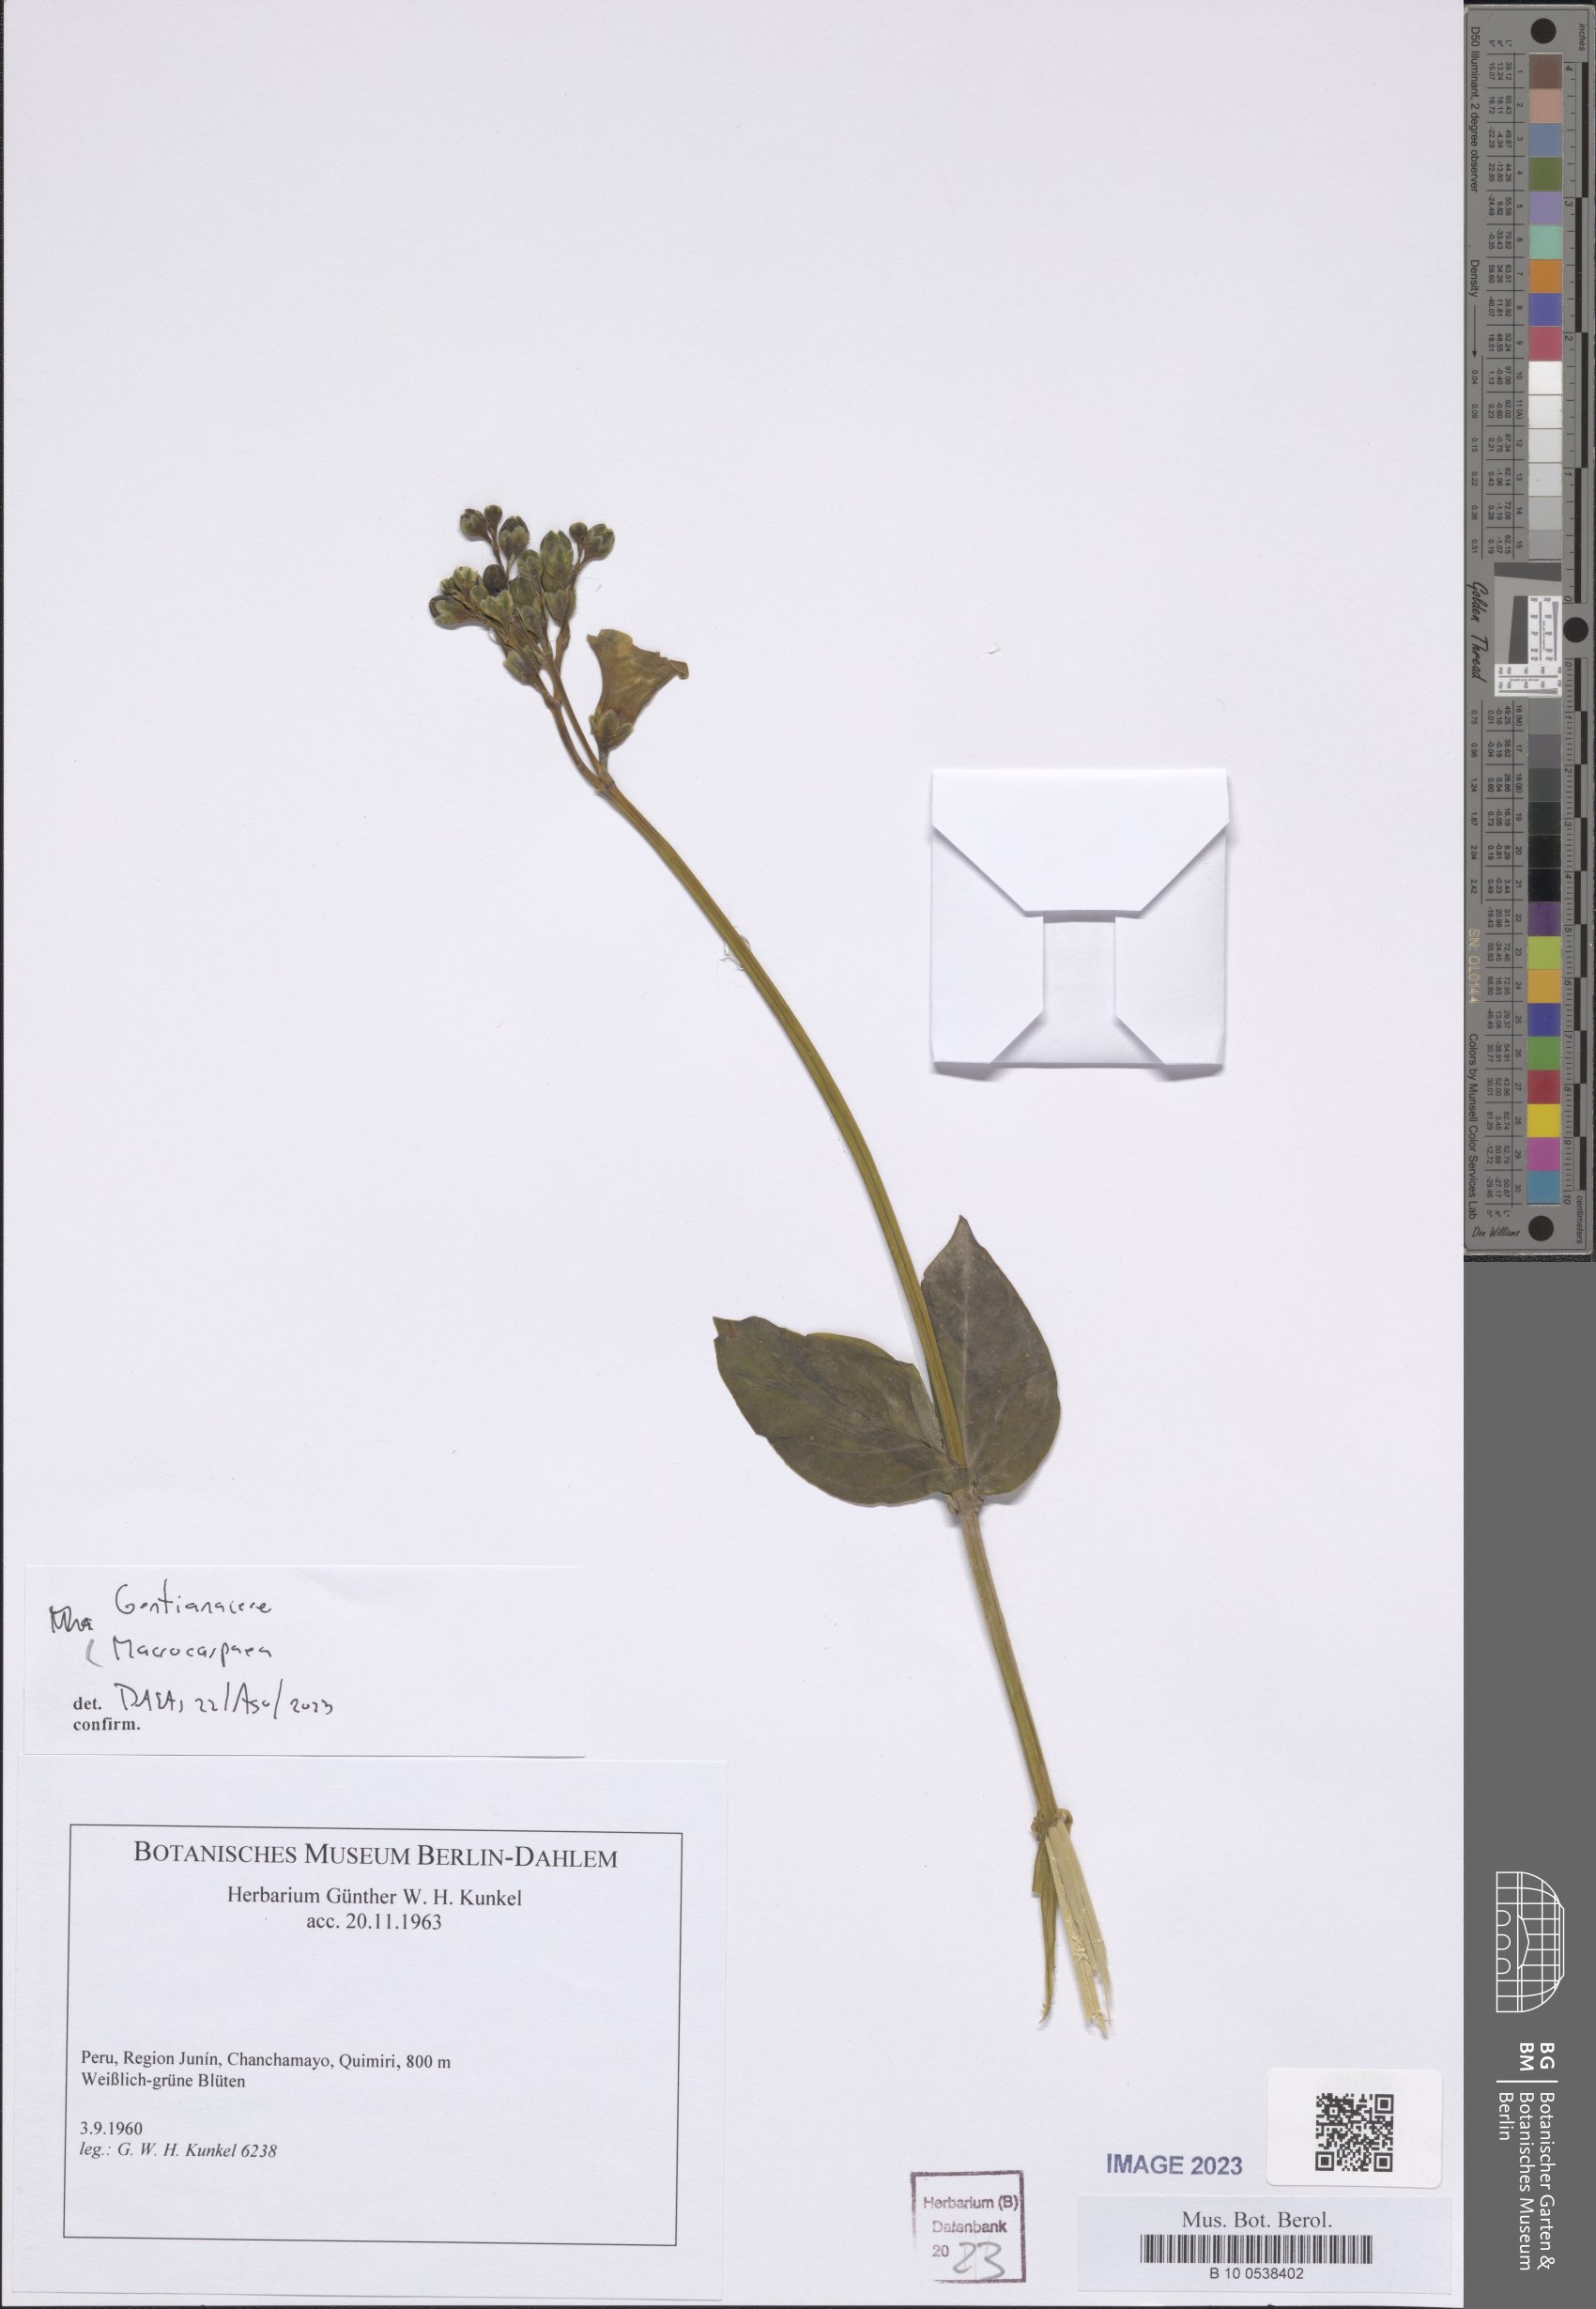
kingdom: Plantae
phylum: Tracheophyta
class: Magnoliopsida
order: Gentianales
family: Gentianaceae
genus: Macrocarpaea
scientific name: Macrocarpaea
